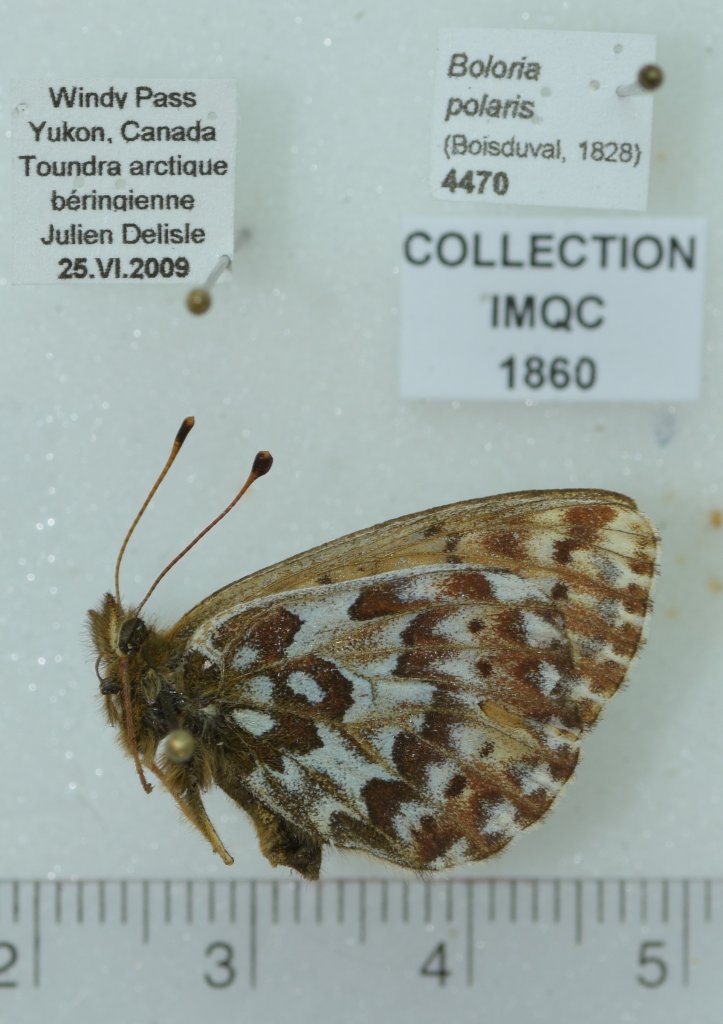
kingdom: Animalia
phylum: Arthropoda
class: Insecta
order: Lepidoptera
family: Nymphalidae
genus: Clossiana
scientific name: Clossiana polaris
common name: Polaris Fritillary
